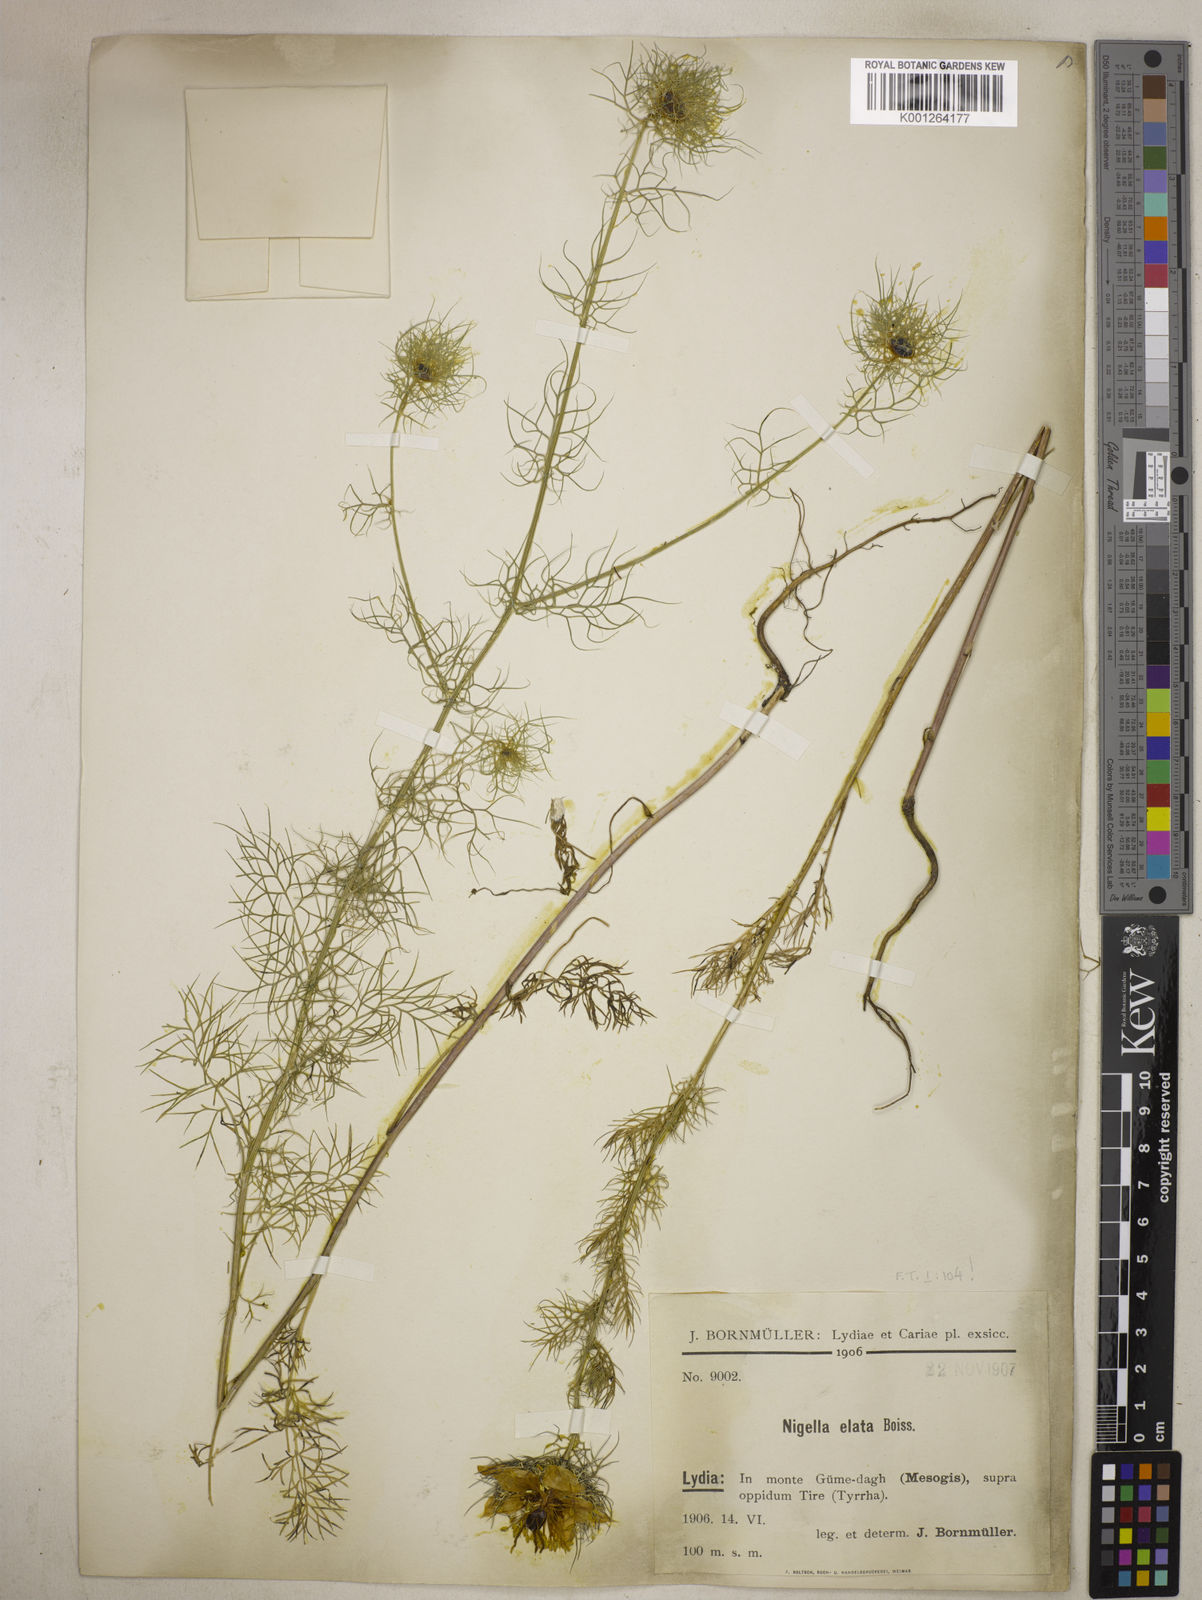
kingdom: Plantae
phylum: Tracheophyta
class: Magnoliopsida
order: Ranunculales
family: Ranunculaceae
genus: Nigella
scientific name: Nigella elata
